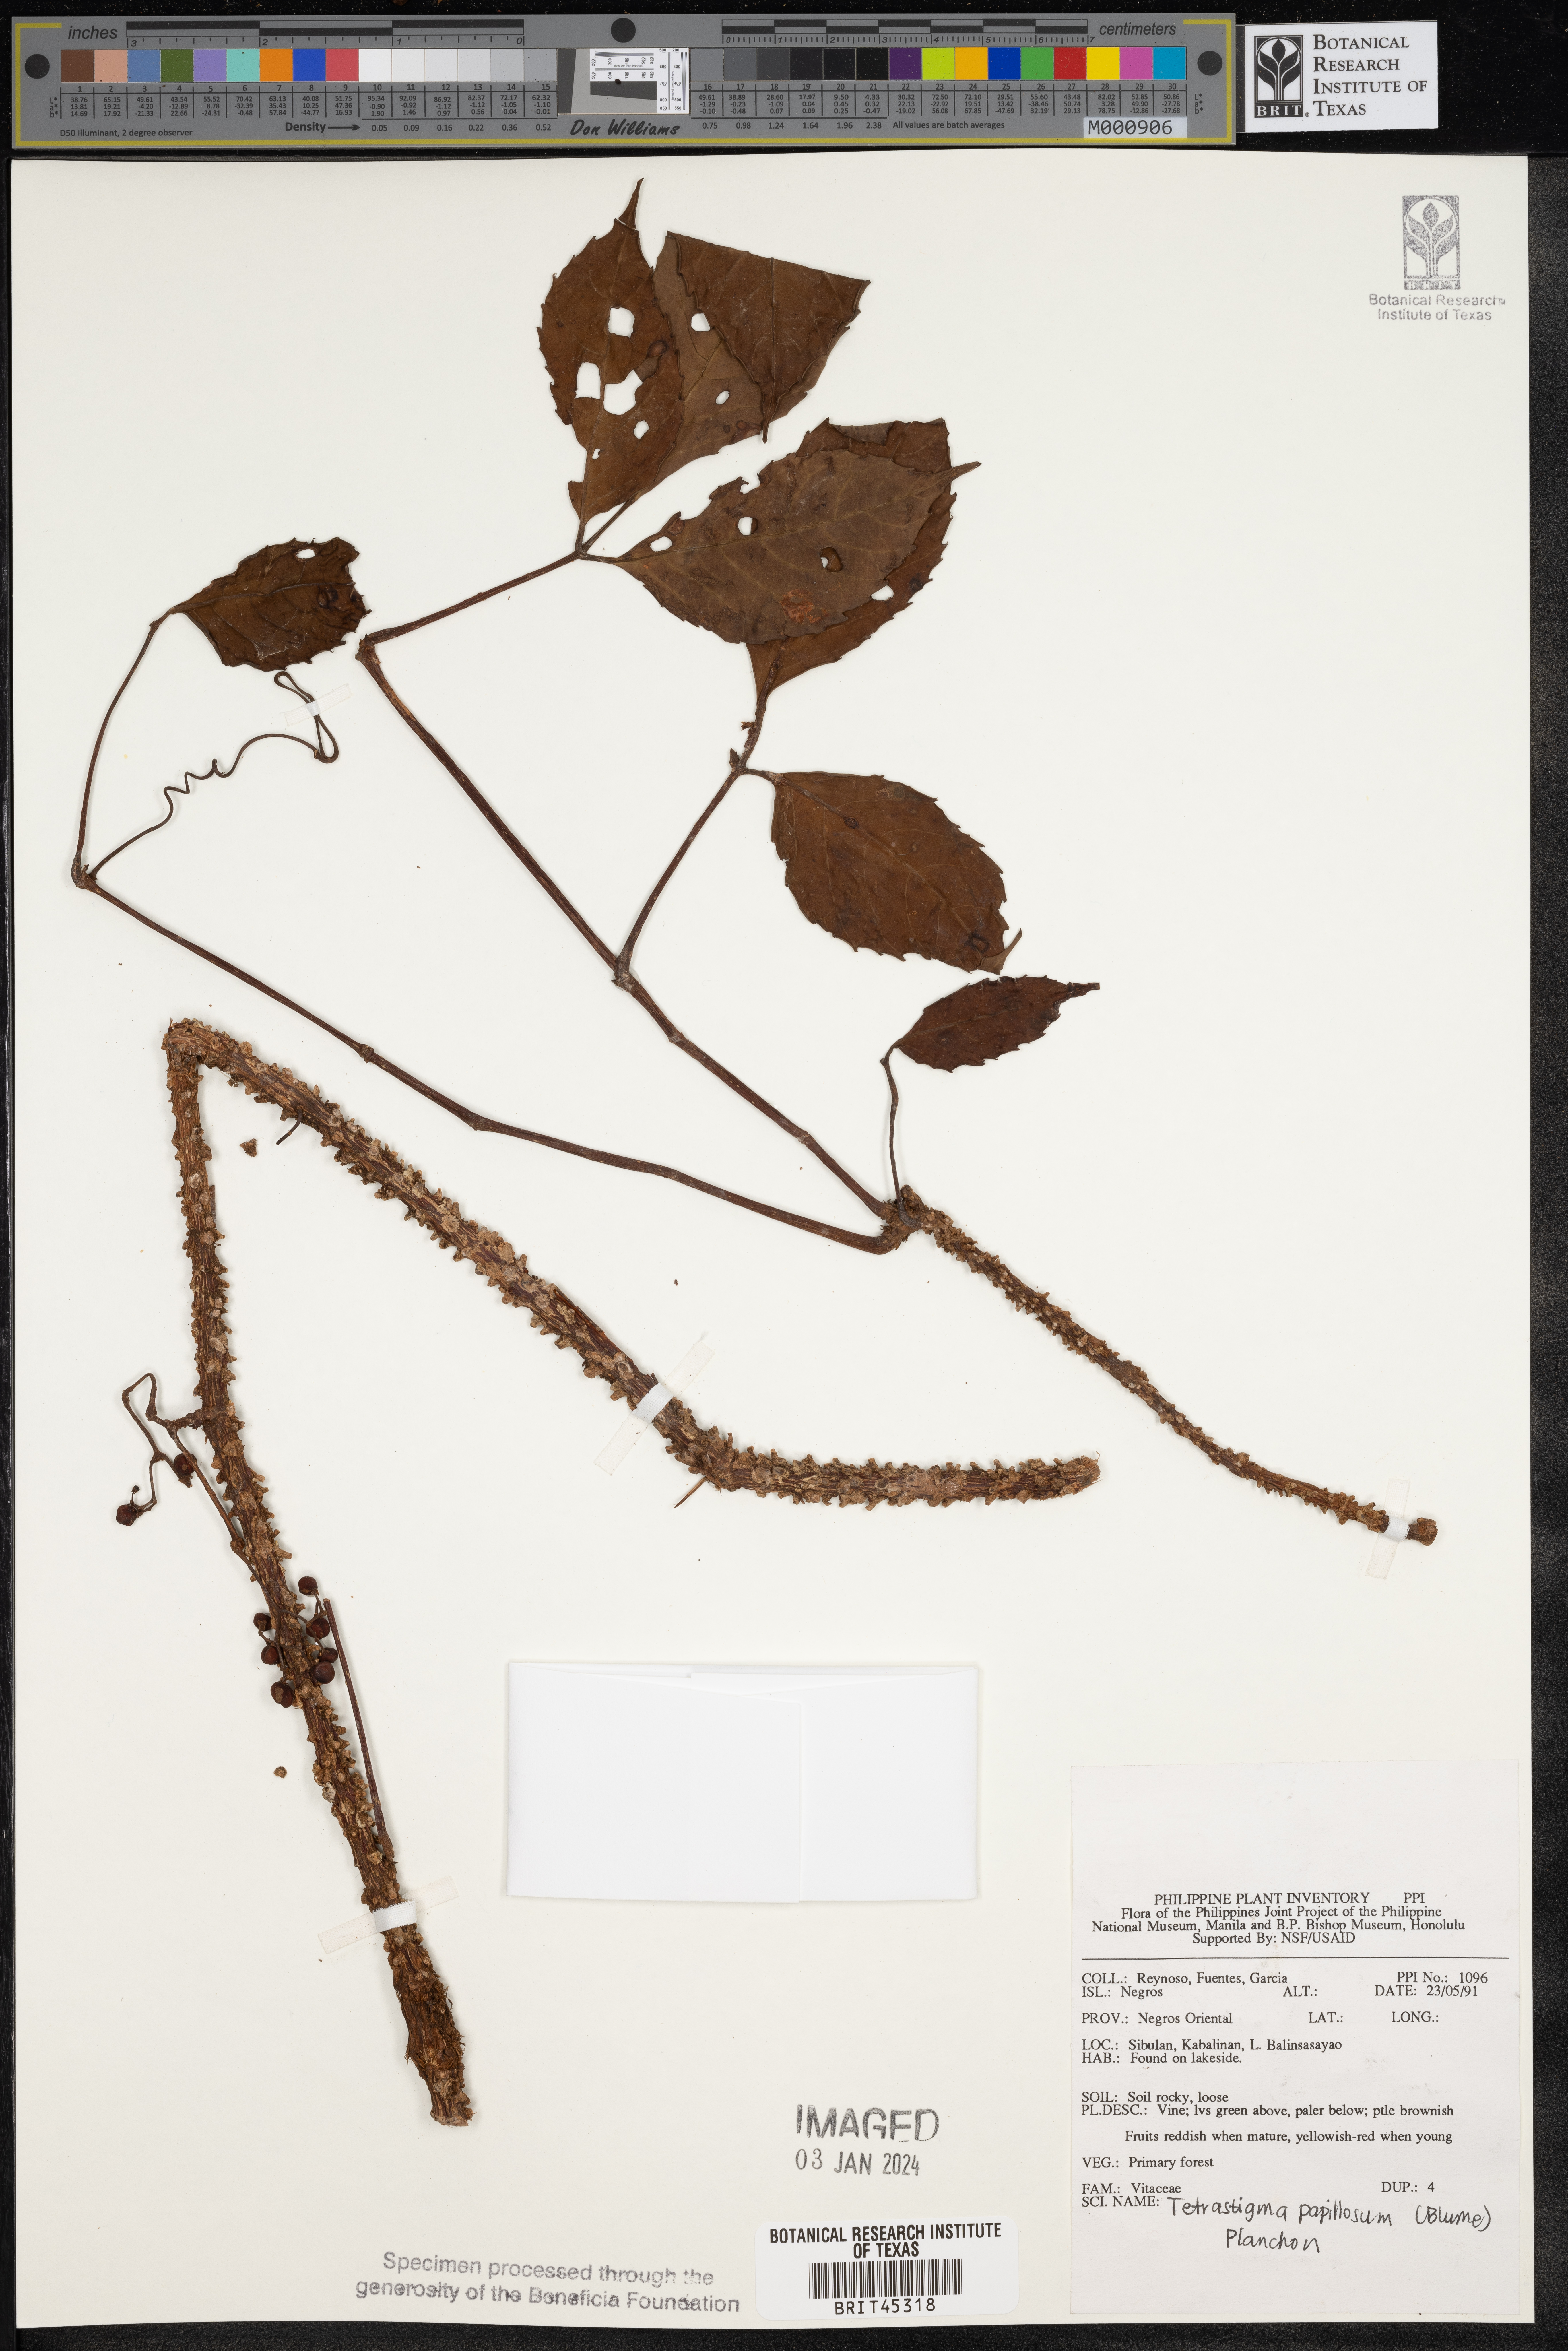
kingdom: Plantae
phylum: Tracheophyta
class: Magnoliopsida
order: Vitales
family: Vitaceae
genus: Tetrastigma
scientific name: Tetrastigma papillosum
